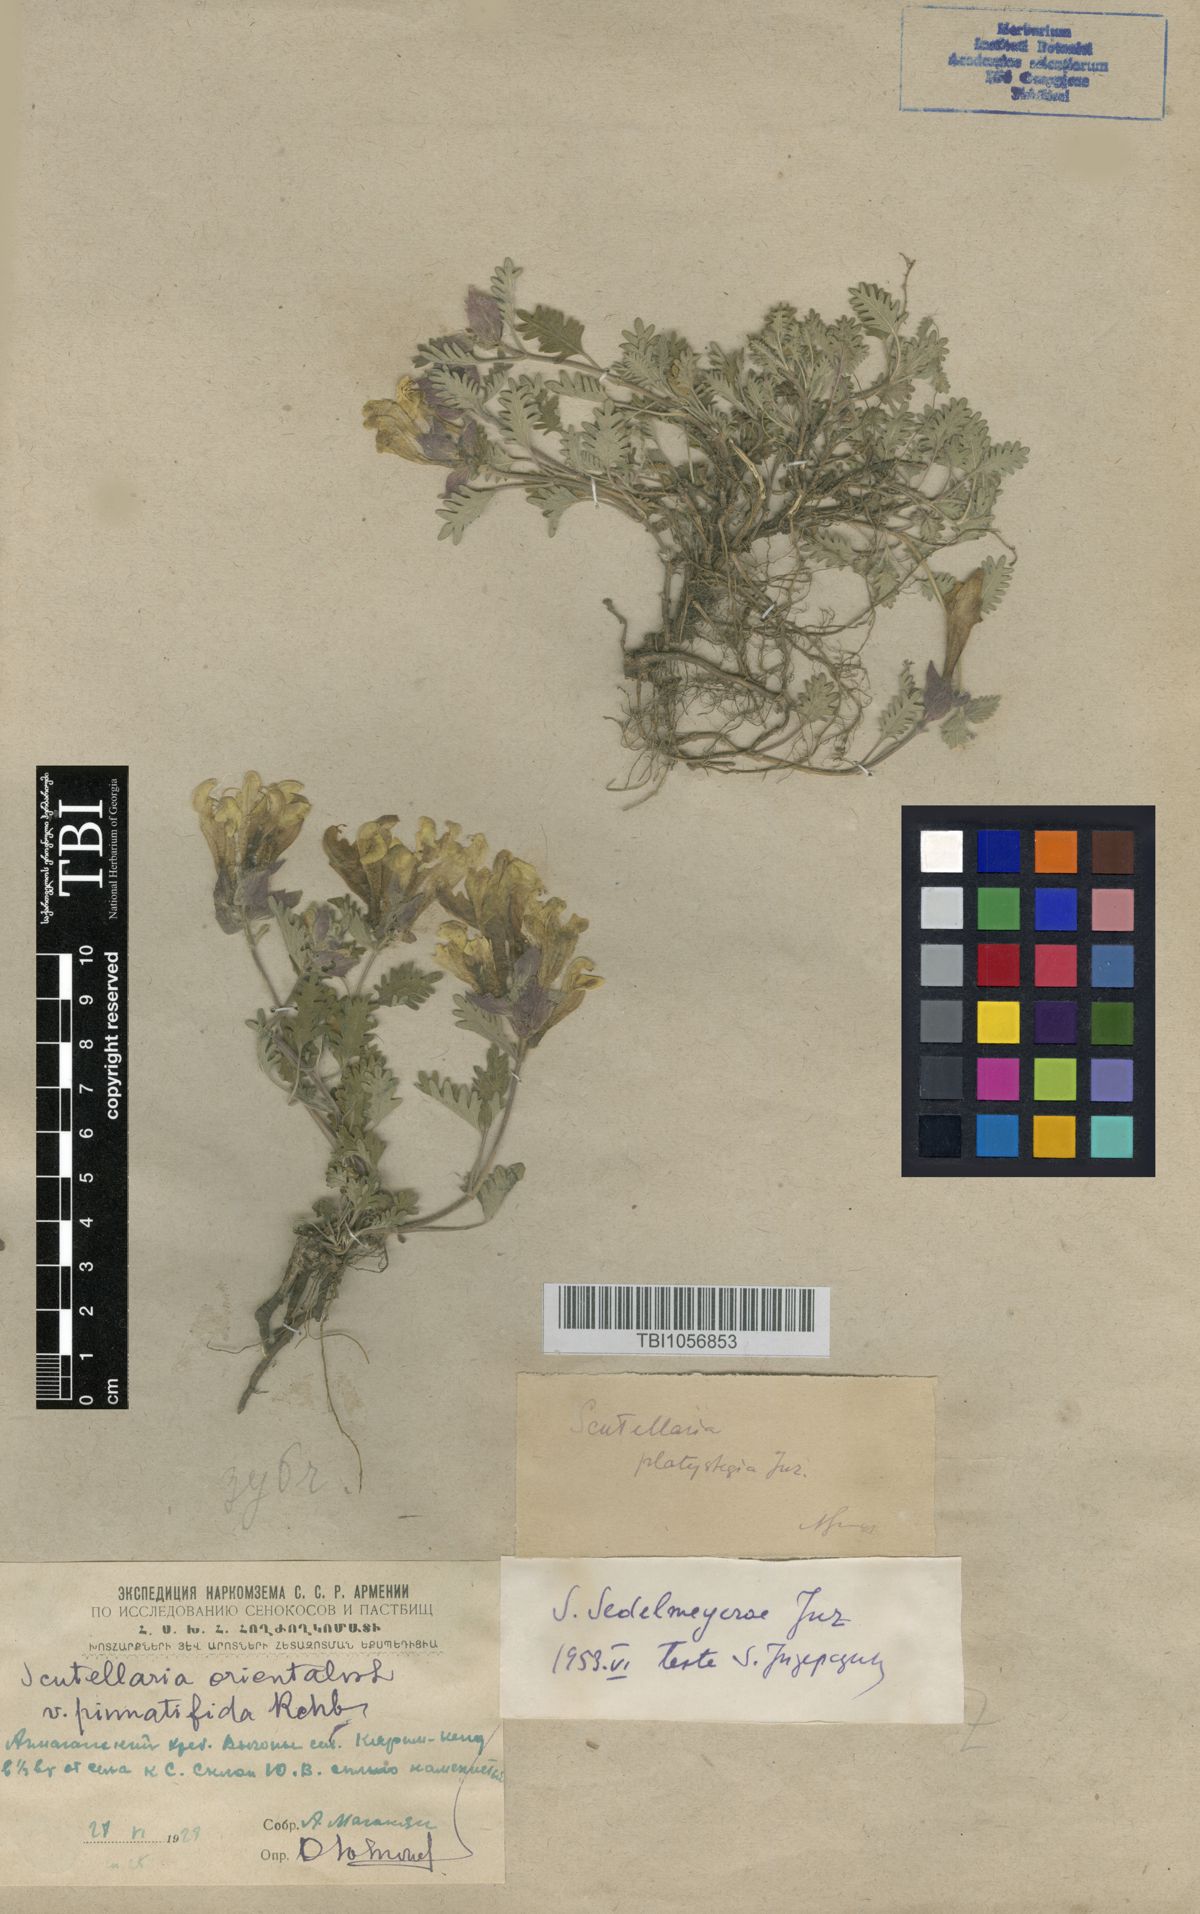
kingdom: Plantae
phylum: Tracheophyta
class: Magnoliopsida
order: Lamiales
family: Lamiaceae
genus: Scutellaria
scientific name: Scutellaria sedelmeyerae
